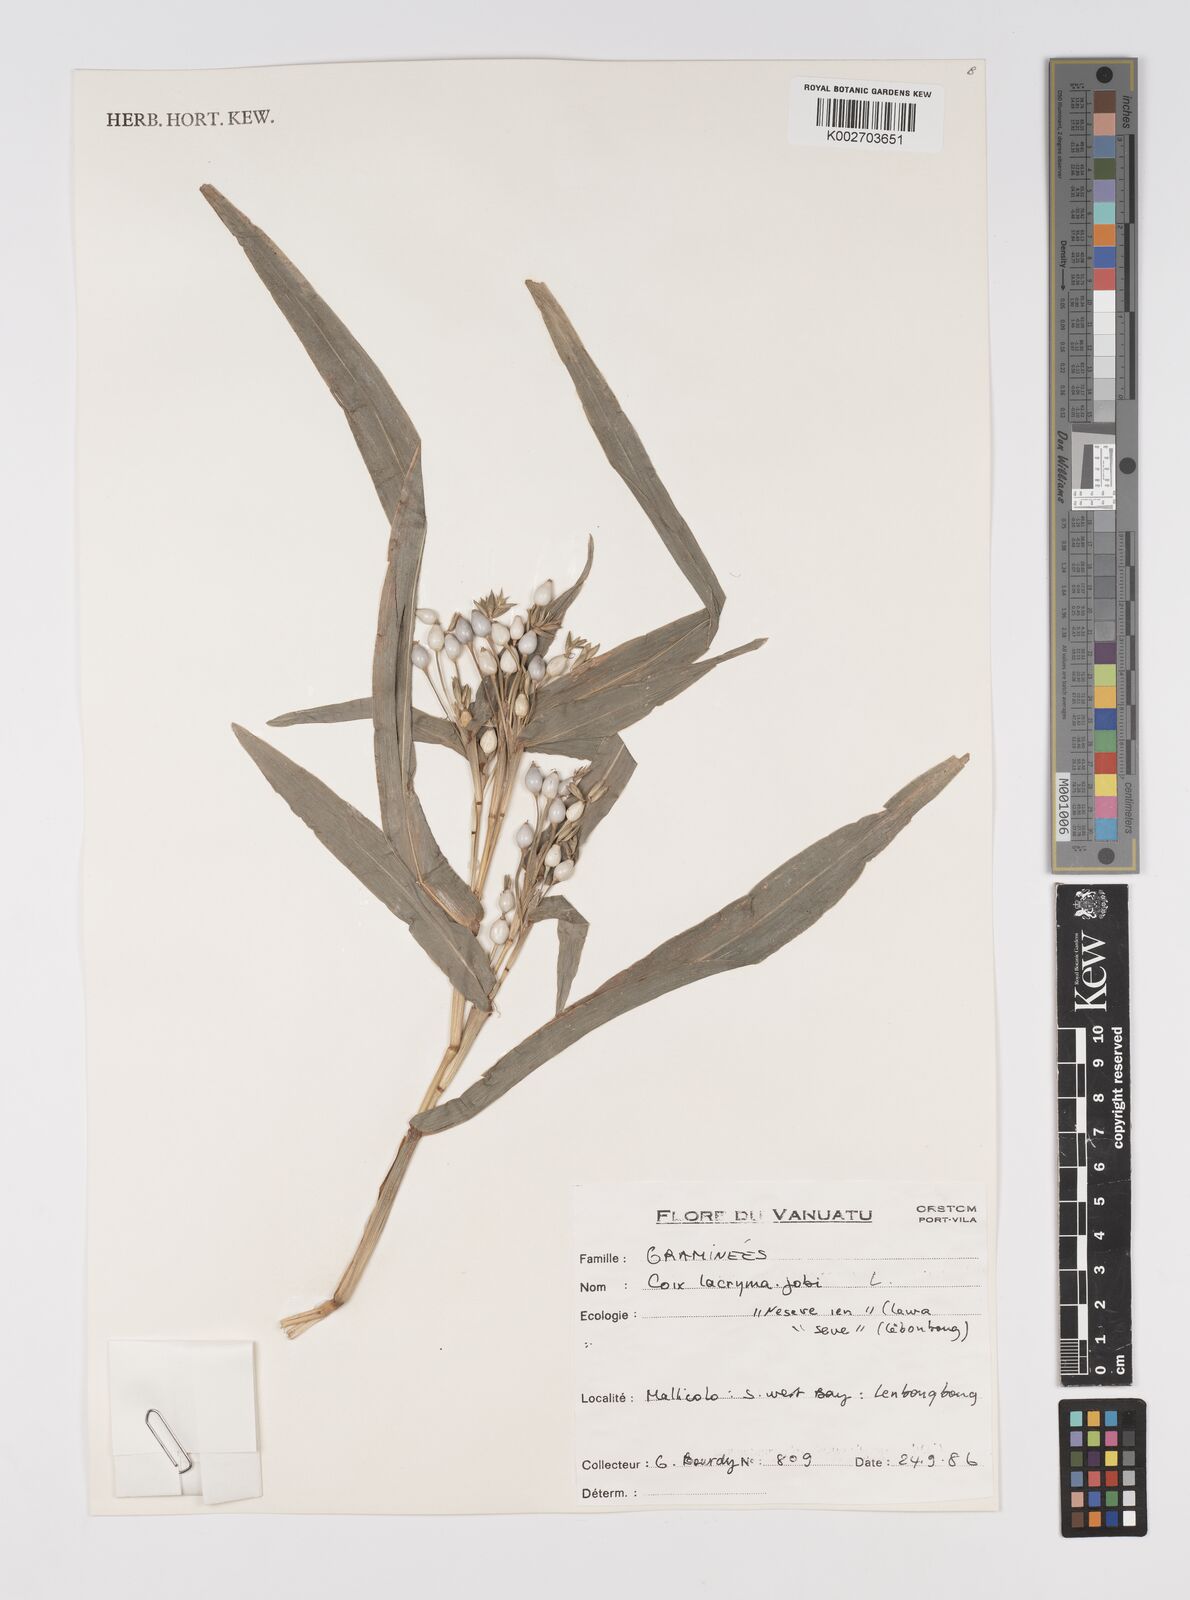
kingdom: Plantae
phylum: Tracheophyta
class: Liliopsida
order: Poales
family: Poaceae
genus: Coix
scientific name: Coix lacryma-jobi
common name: Job's tears
